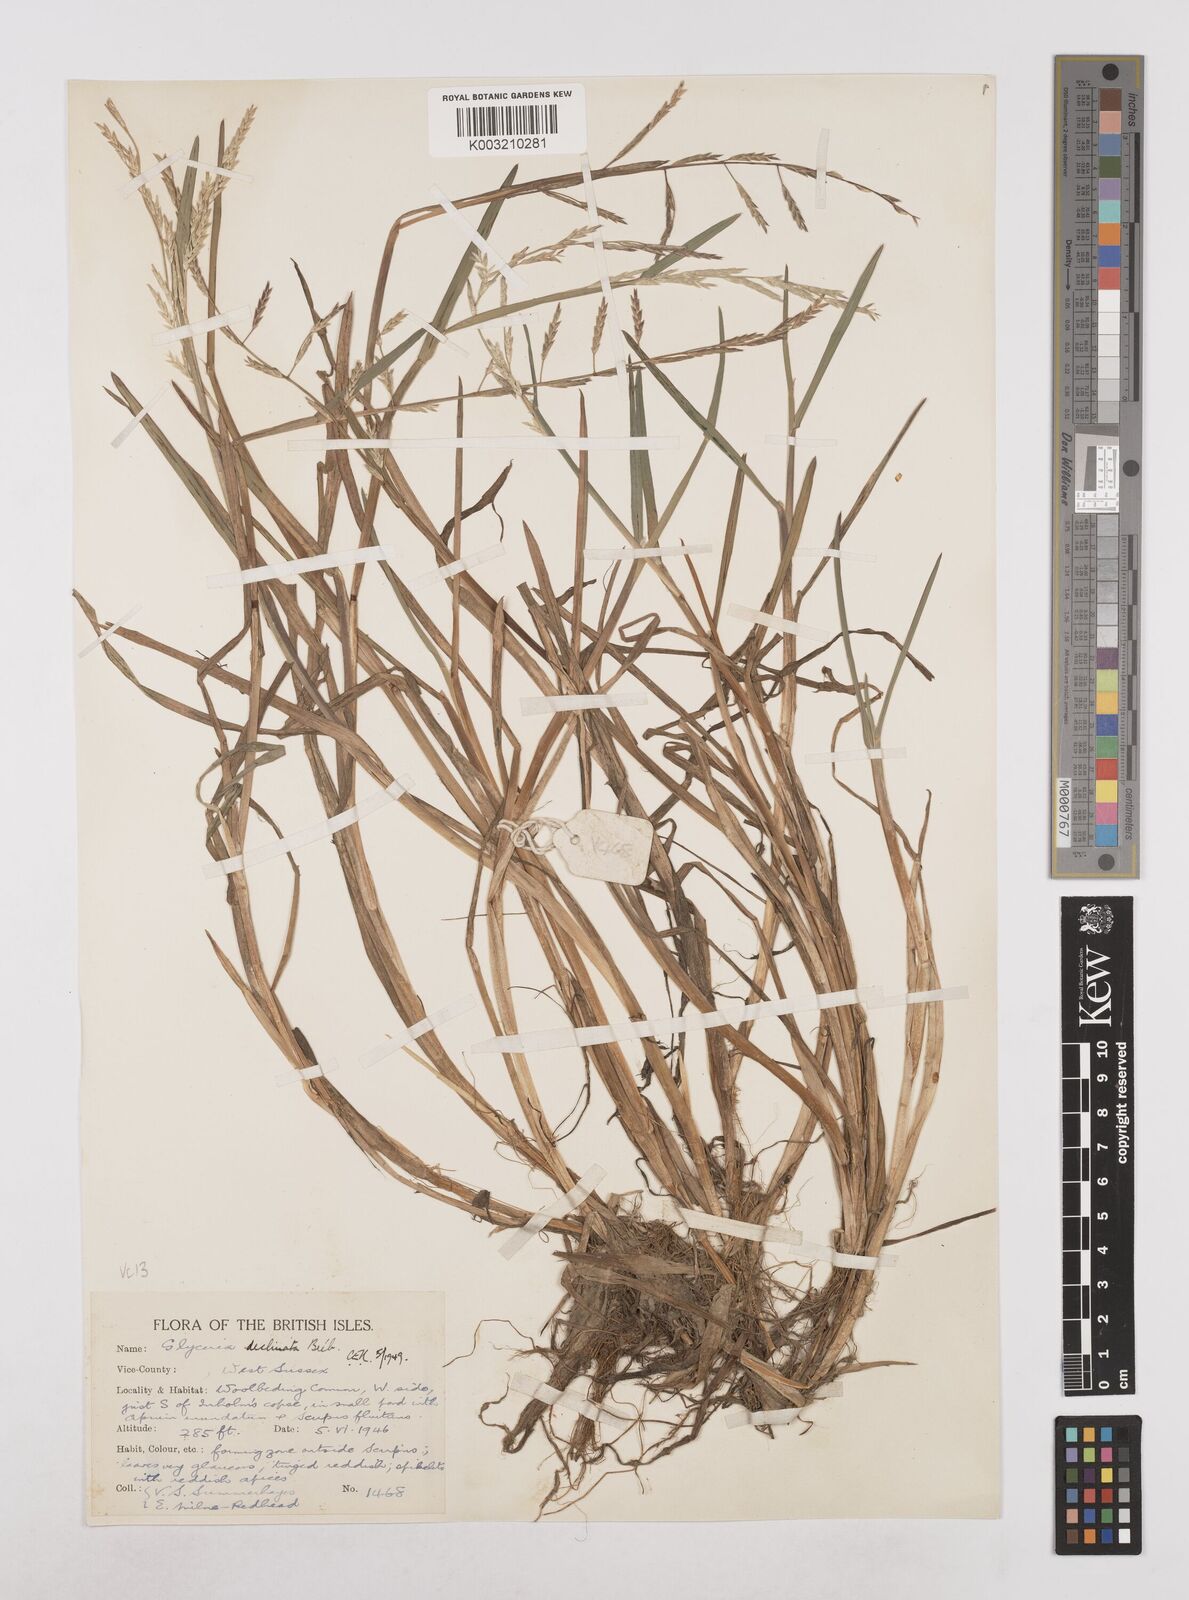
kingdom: Plantae
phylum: Tracheophyta
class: Liliopsida
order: Poales
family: Poaceae
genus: Glyceria
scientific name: Glyceria declinata
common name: Small sweet-grass
